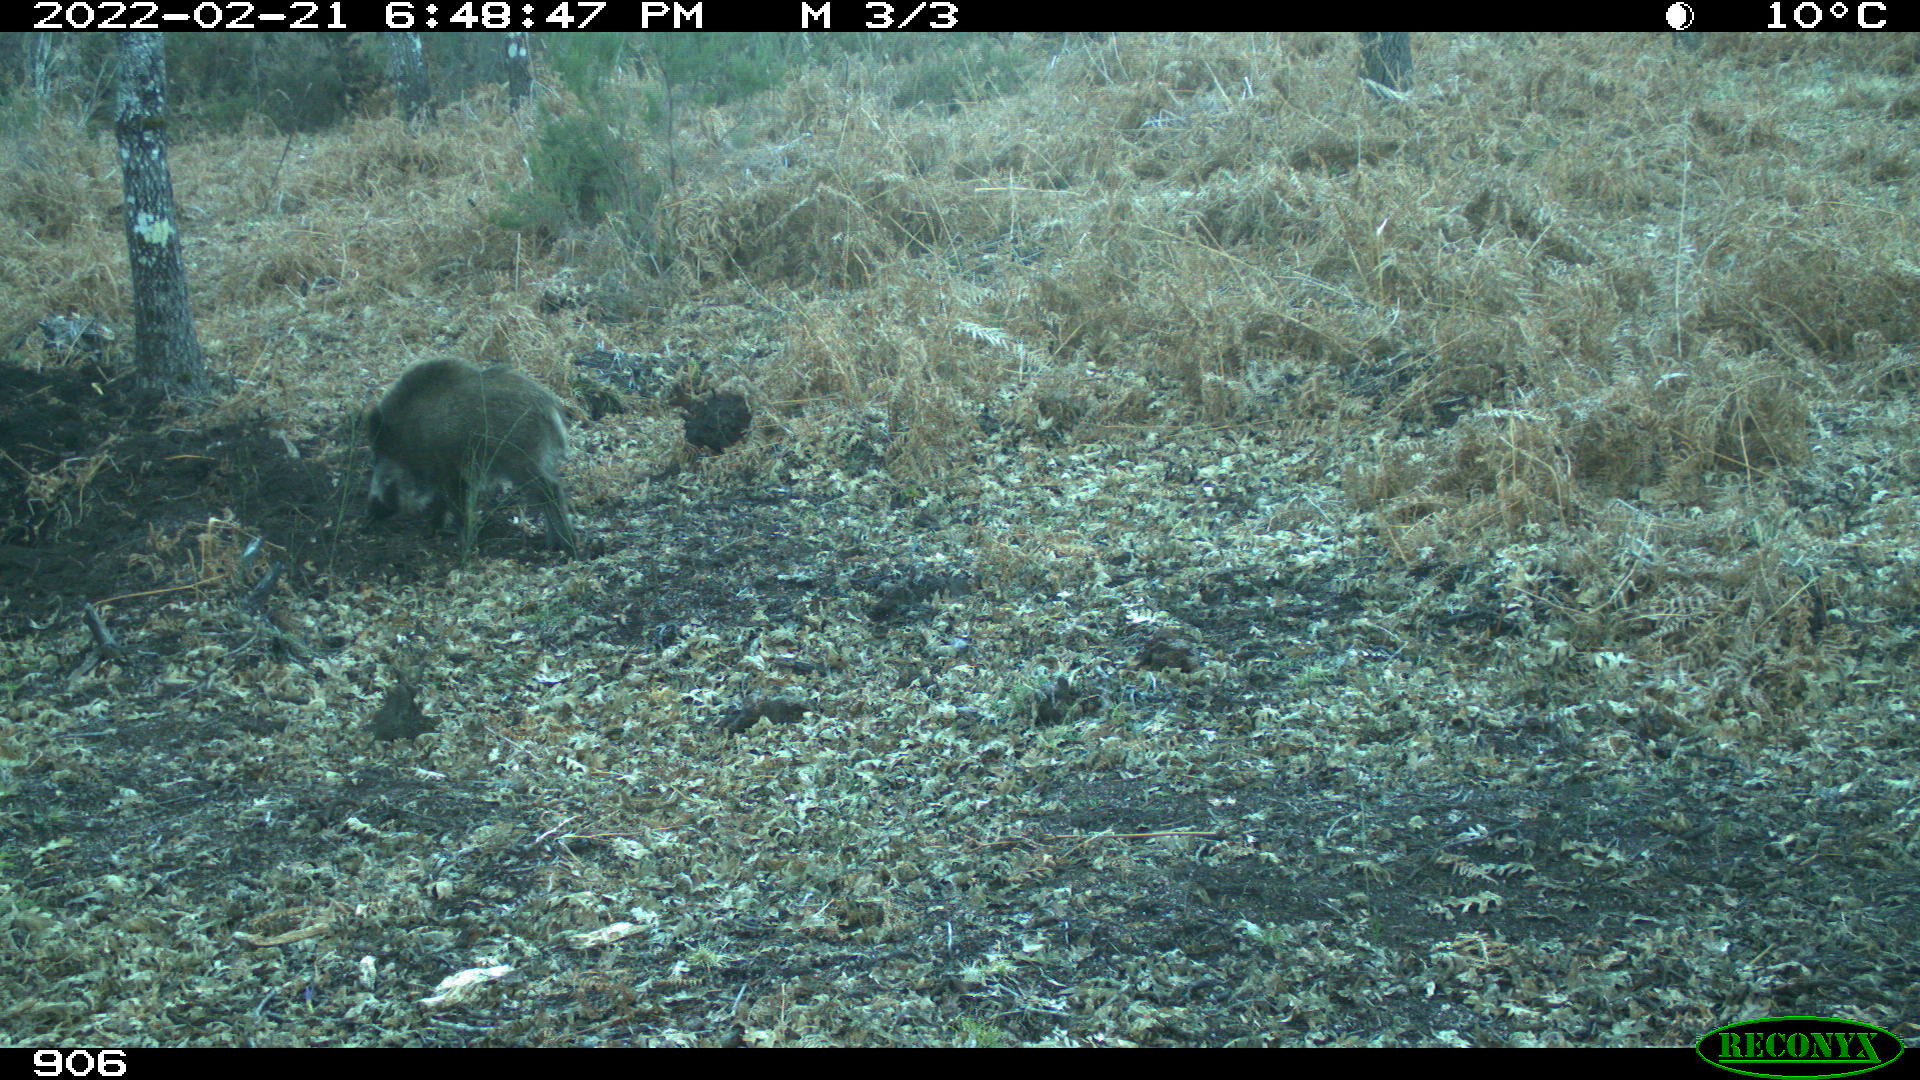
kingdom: Animalia
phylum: Chordata
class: Mammalia
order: Artiodactyla
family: Suidae
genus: Sus
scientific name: Sus scrofa
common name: Wild boar
